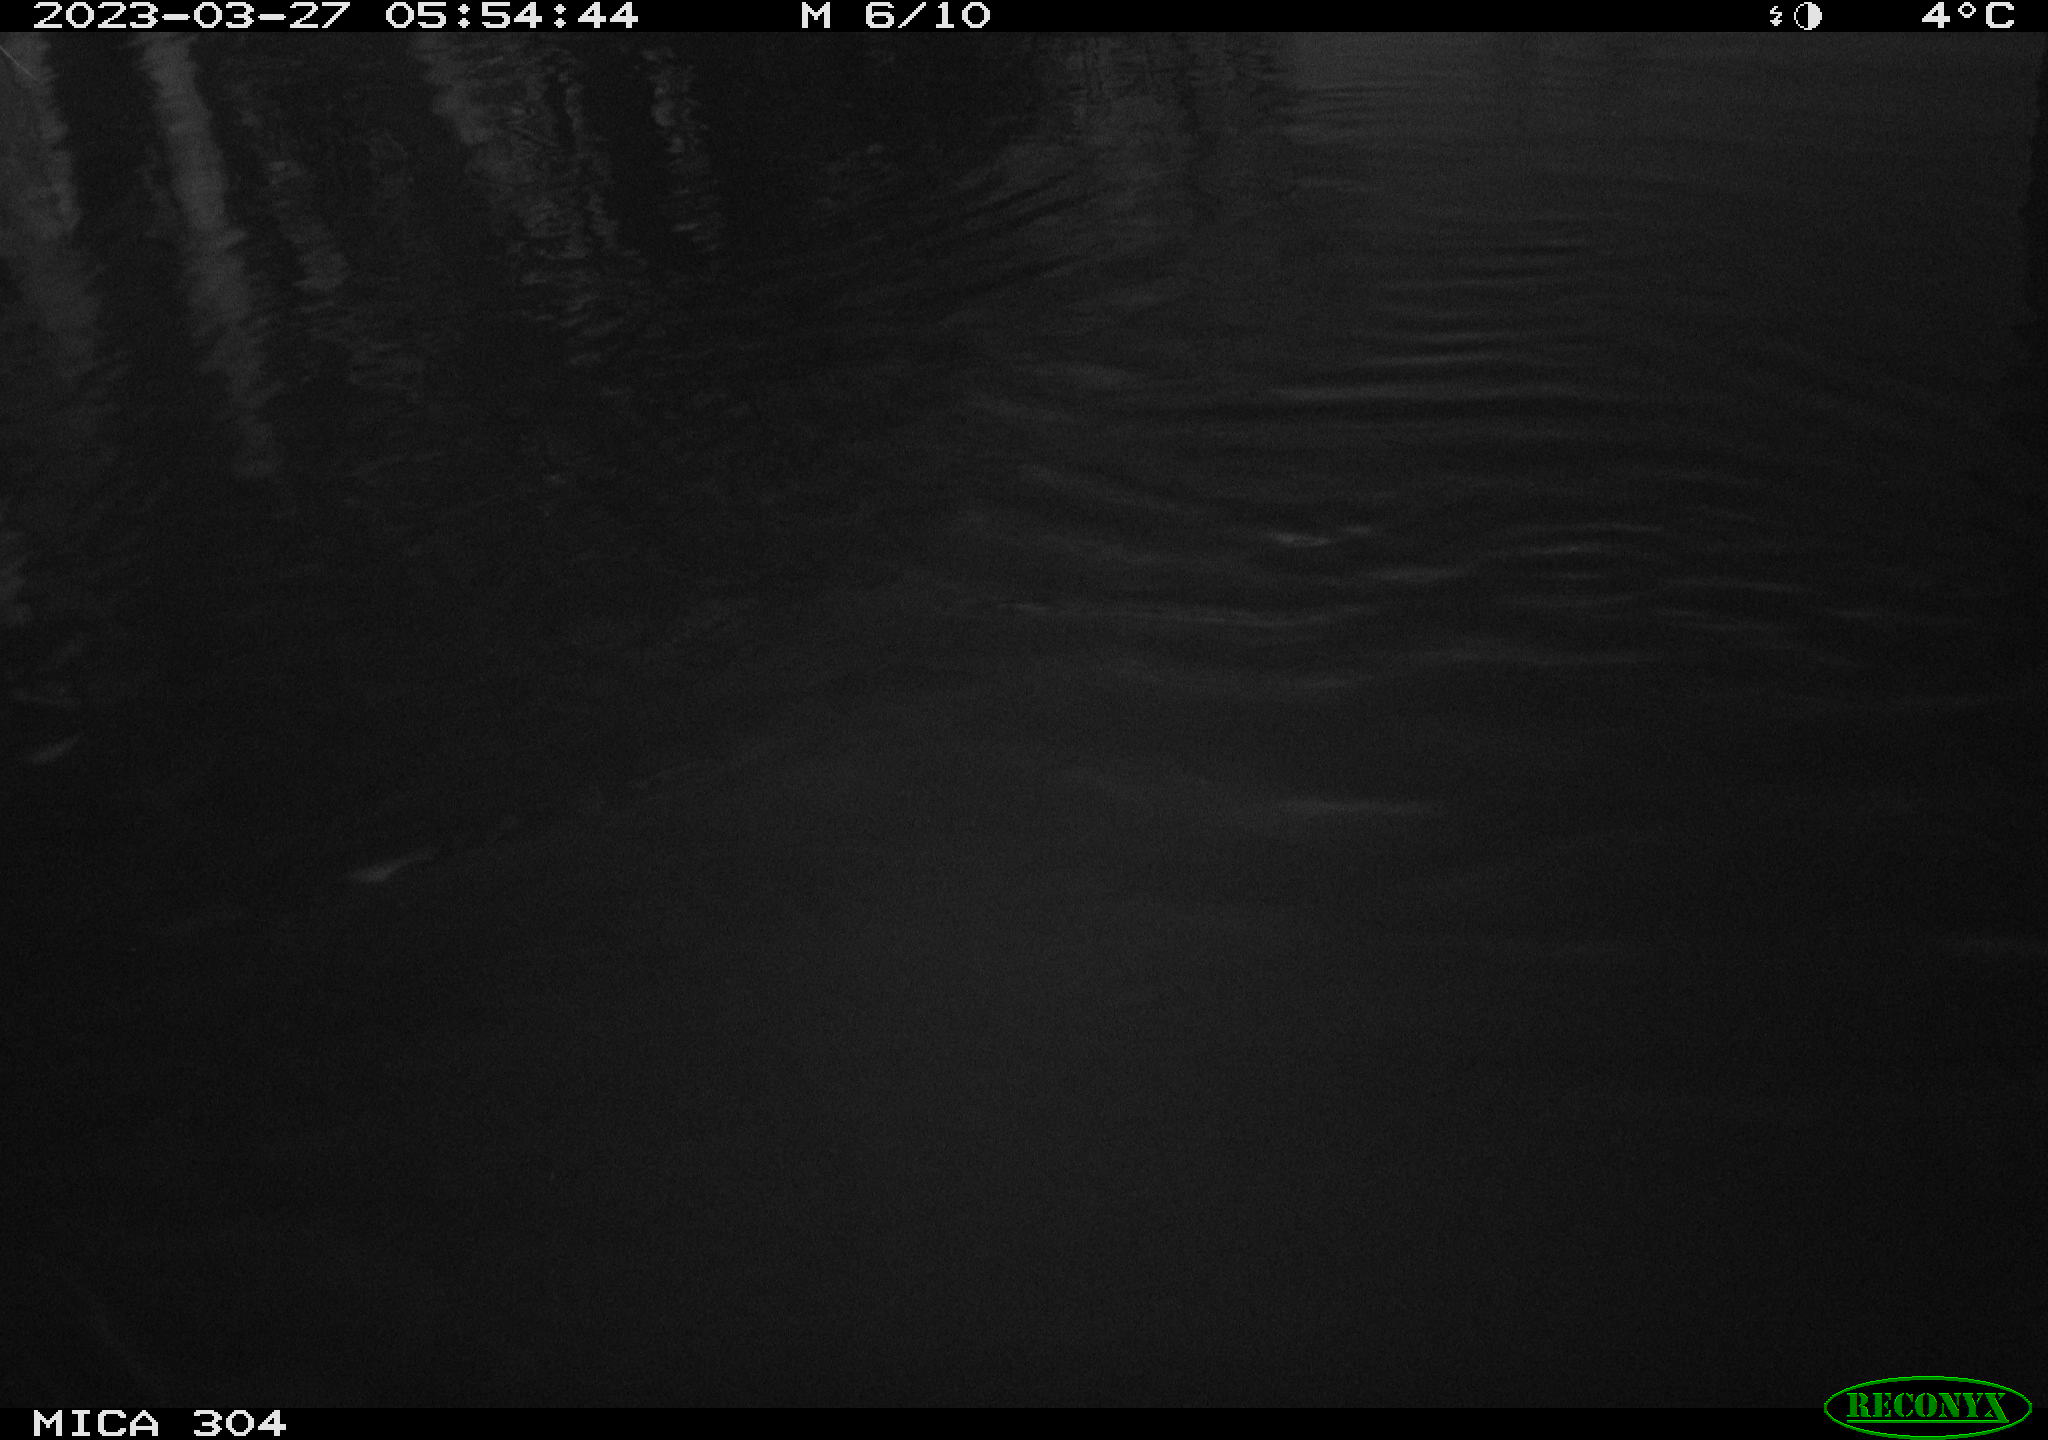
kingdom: Animalia
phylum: Chordata
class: Aves
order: Anseriformes
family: Anatidae
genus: Anas
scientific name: Anas
